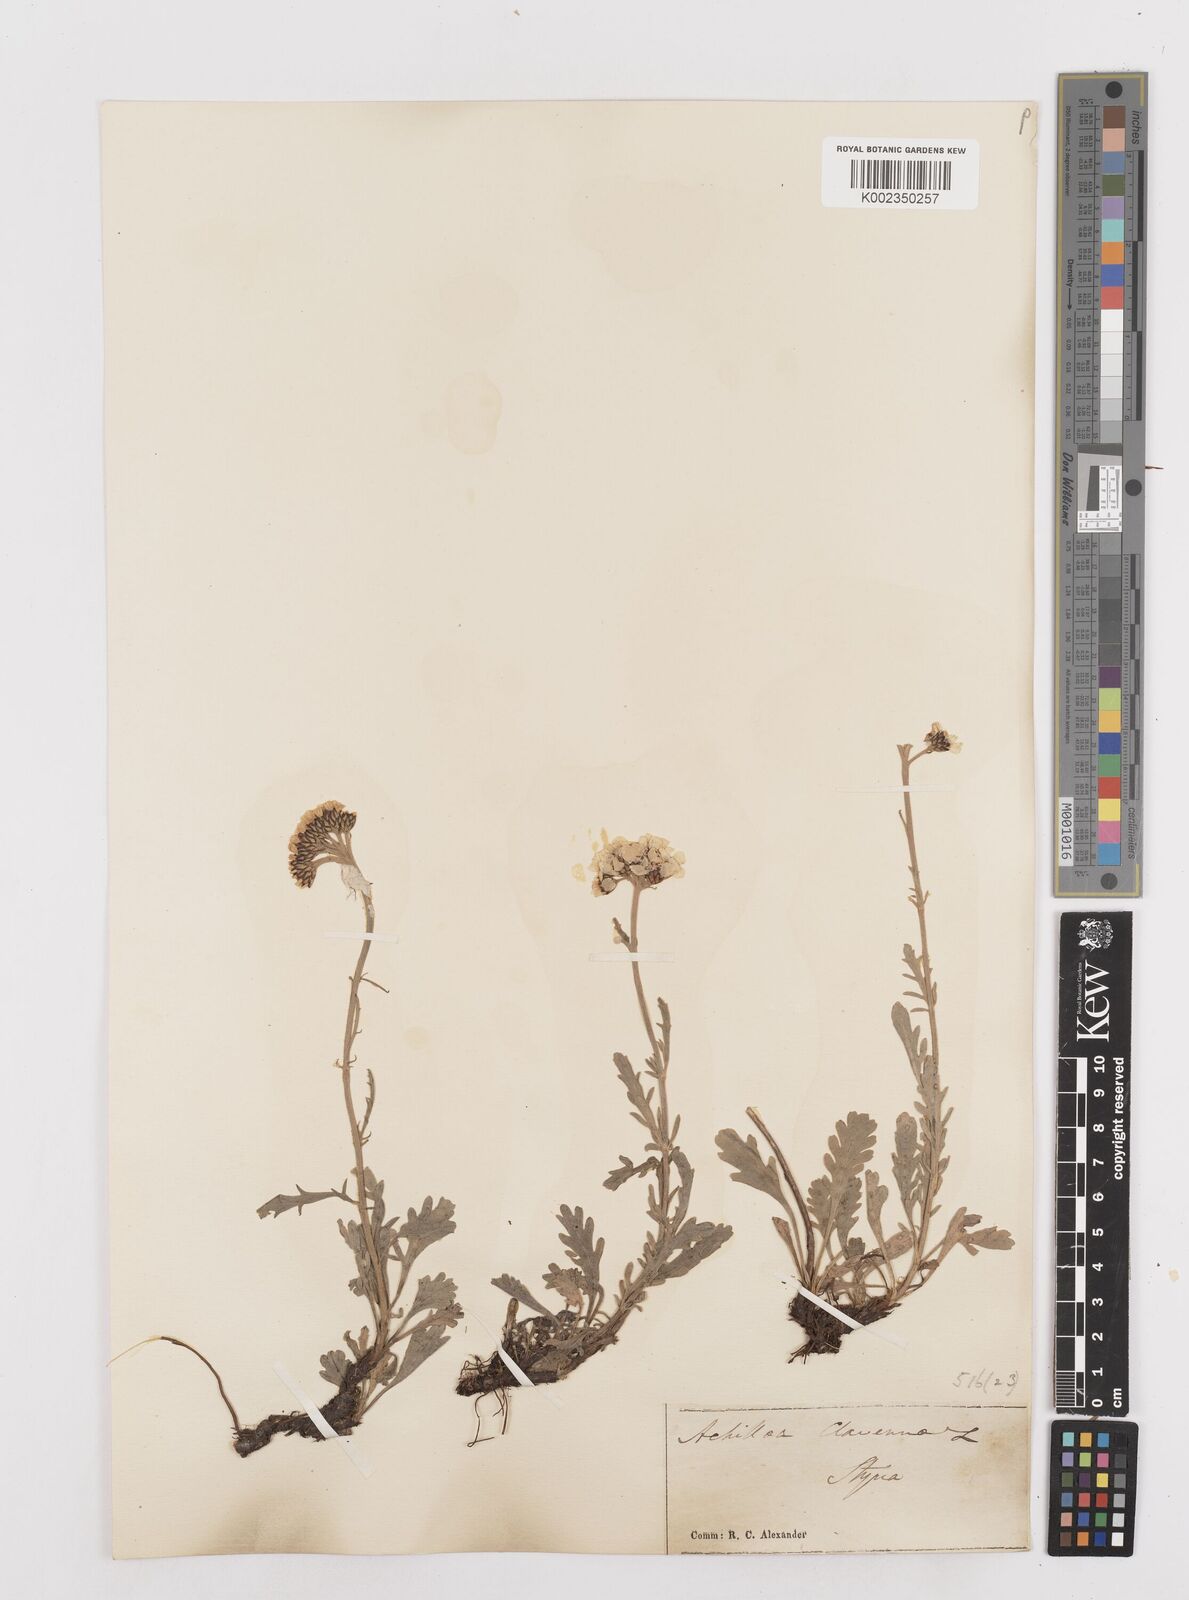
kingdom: Plantae
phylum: Tracheophyta
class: Magnoliopsida
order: Asterales
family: Asteraceae
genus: Achillea
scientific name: Achillea clavennae
